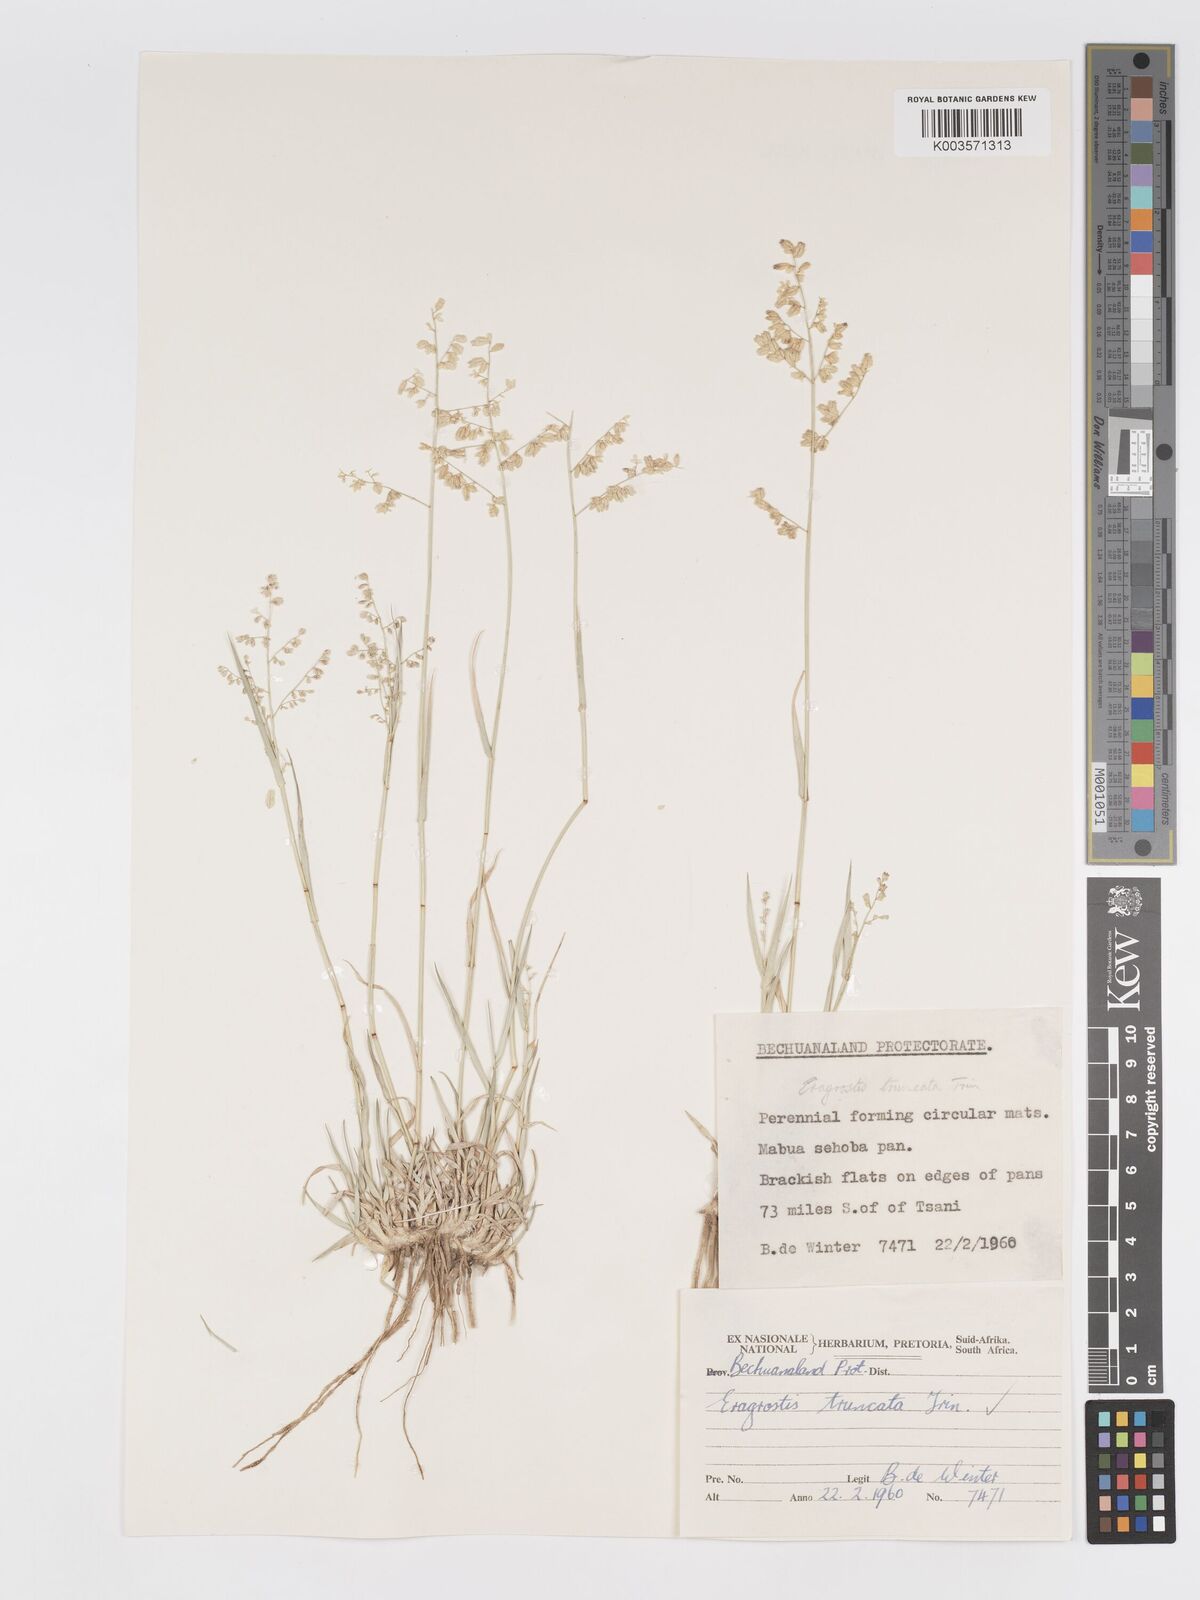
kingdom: Plantae
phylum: Tracheophyta
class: Liliopsida
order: Poales
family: Poaceae
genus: Eragrostis
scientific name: Eragrostis truncata
